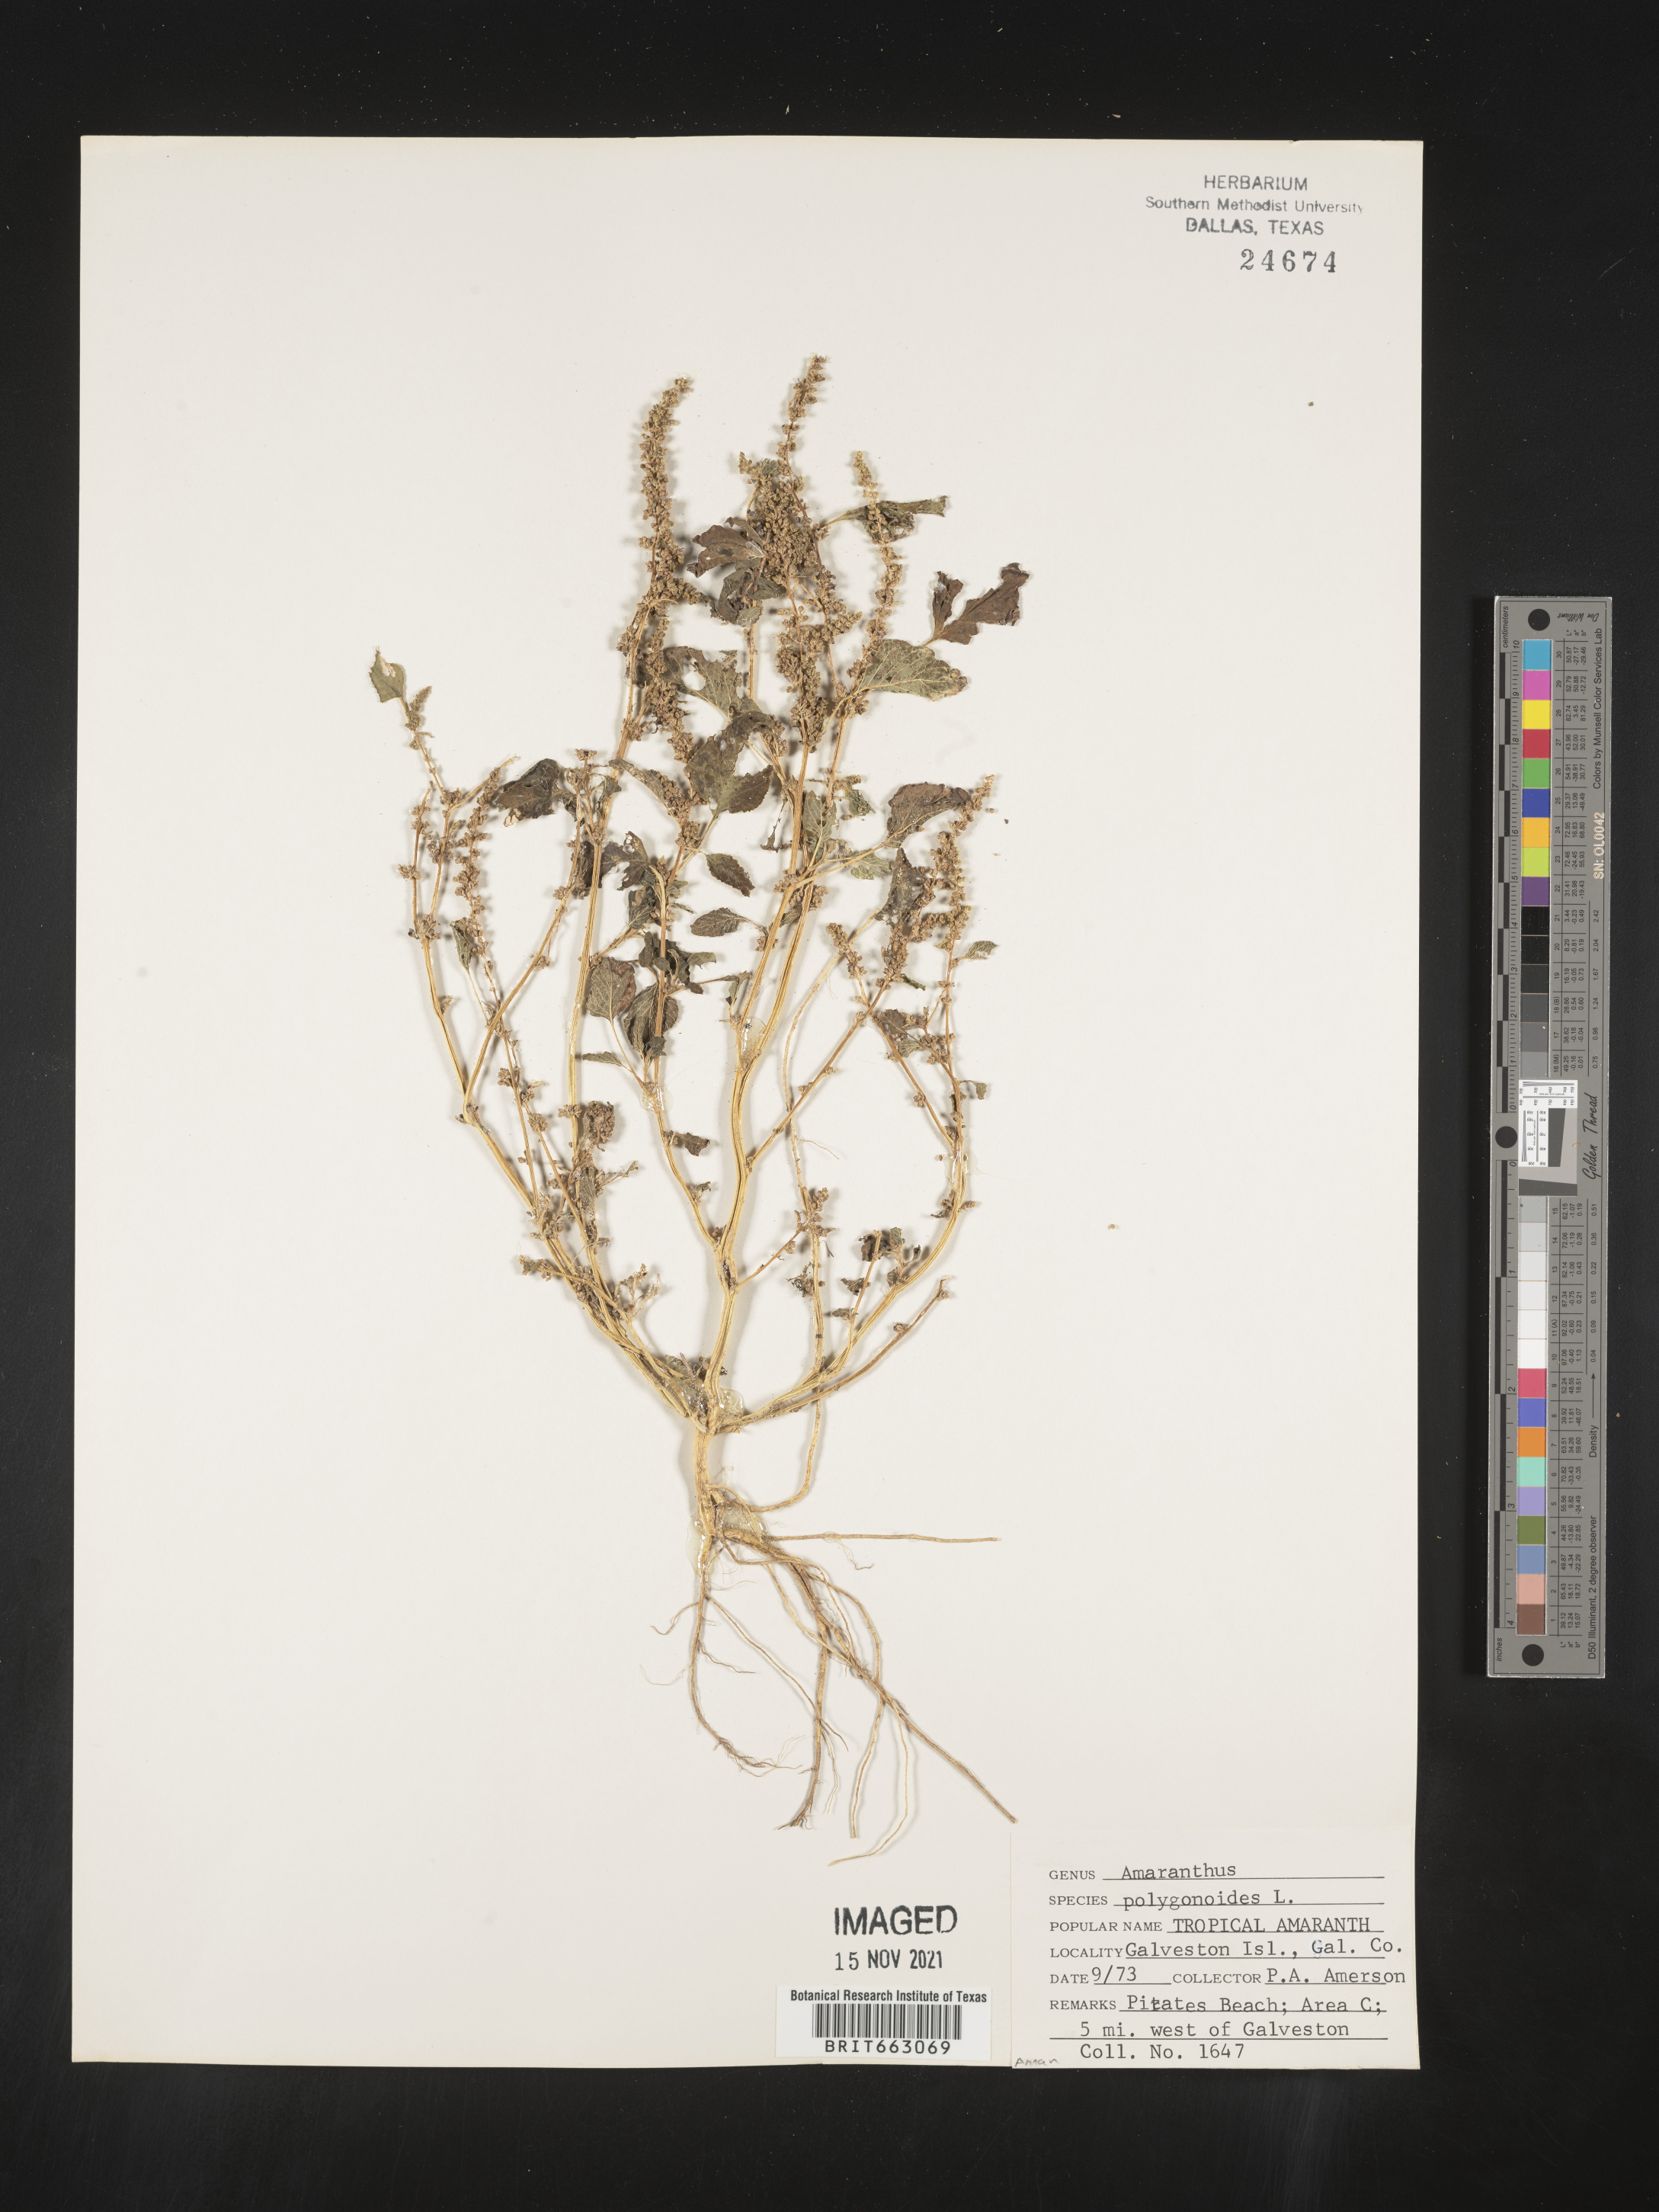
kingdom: Plantae
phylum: Tracheophyta
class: Magnoliopsida
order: Caryophyllales
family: Amaranthaceae
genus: Amaranthus
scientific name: Amaranthus polygonoides
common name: Tropical amaranth
